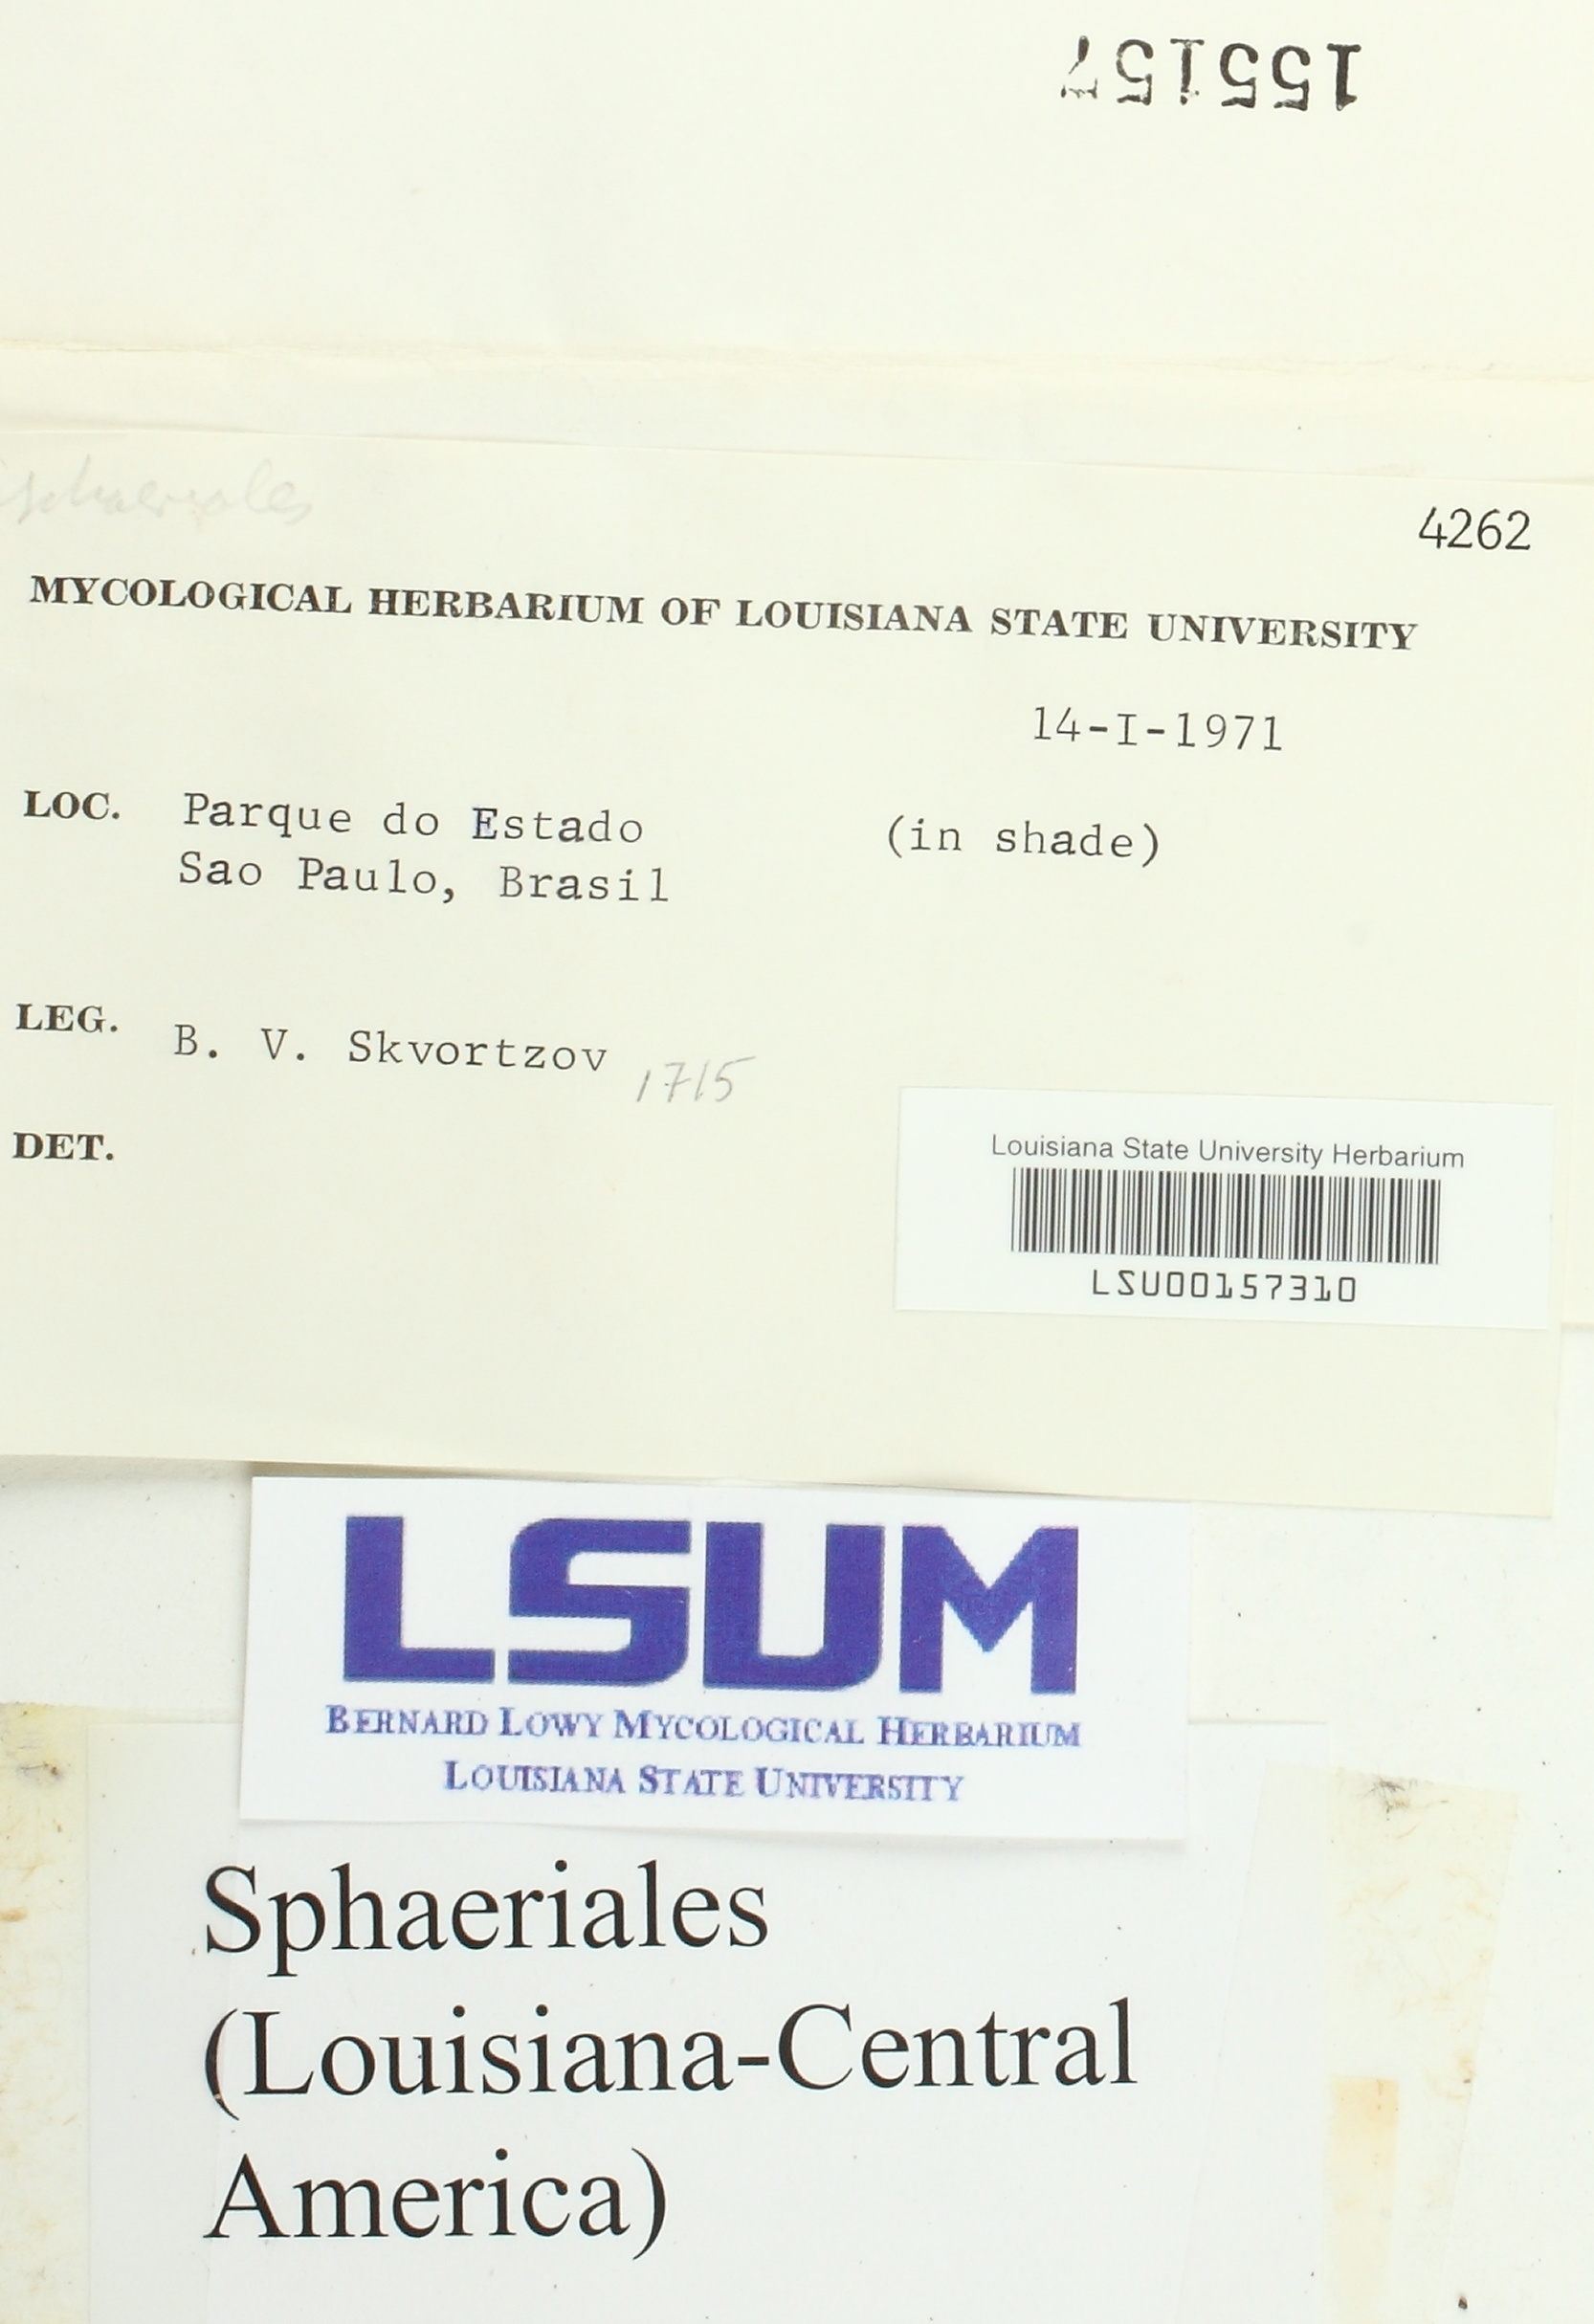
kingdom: Fungi
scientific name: Fungi
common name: Fungi
